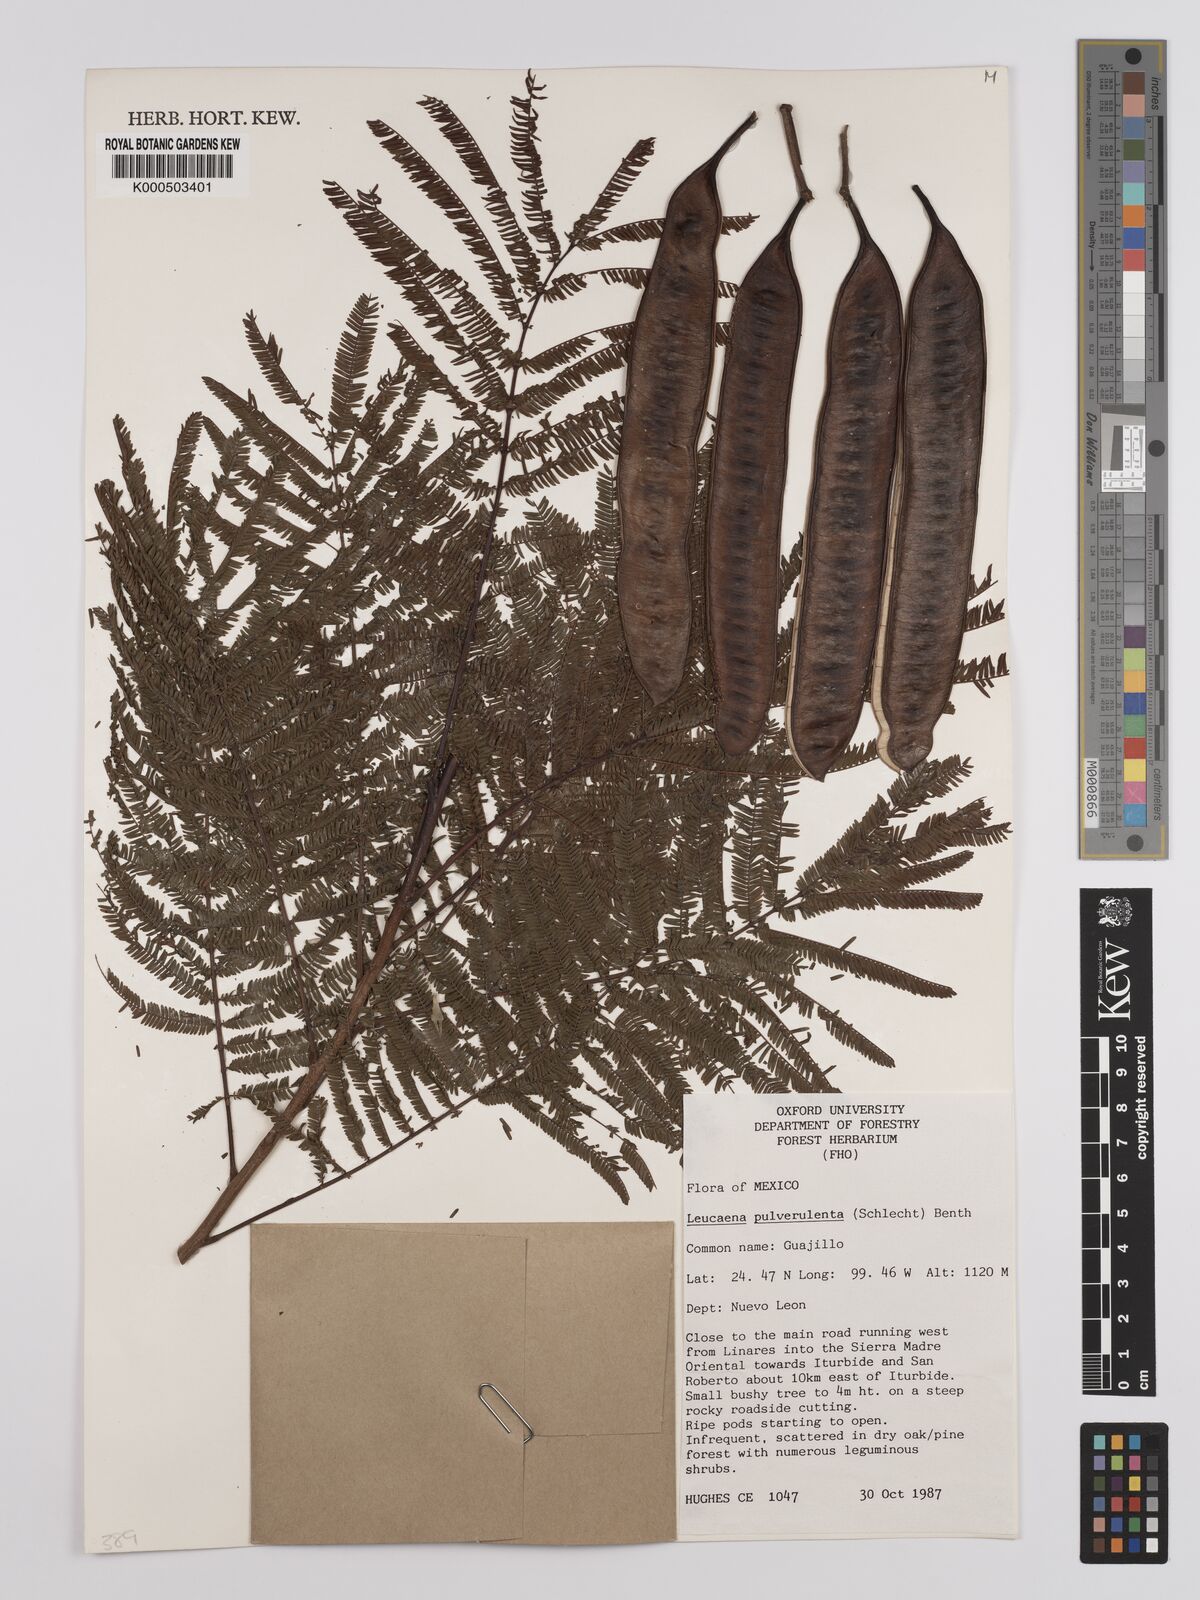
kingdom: Plantae
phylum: Tracheophyta
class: Magnoliopsida
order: Fabales
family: Fabaceae
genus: Leucaena
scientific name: Leucaena pulverulenta
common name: Great leadtree
